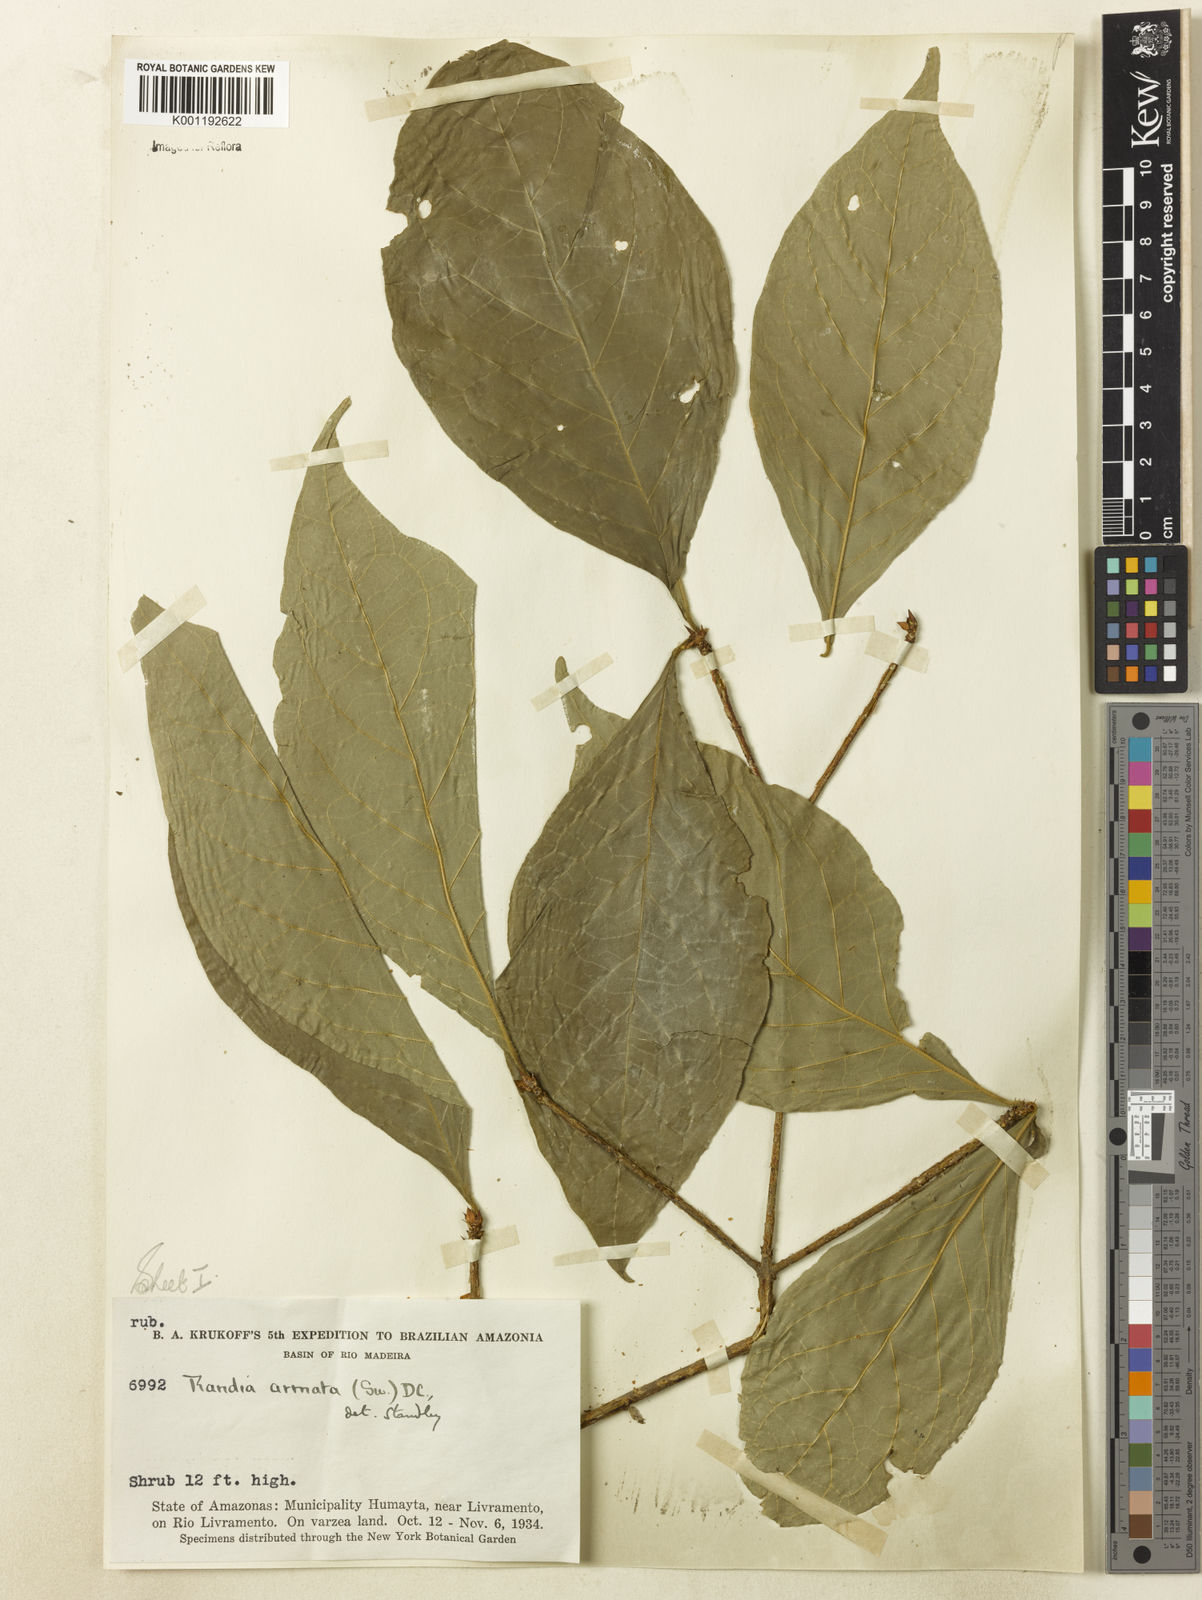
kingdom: Plantae
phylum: Tracheophyta
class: Magnoliopsida
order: Gentianales
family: Rubiaceae
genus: Randia
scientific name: Randia armata
